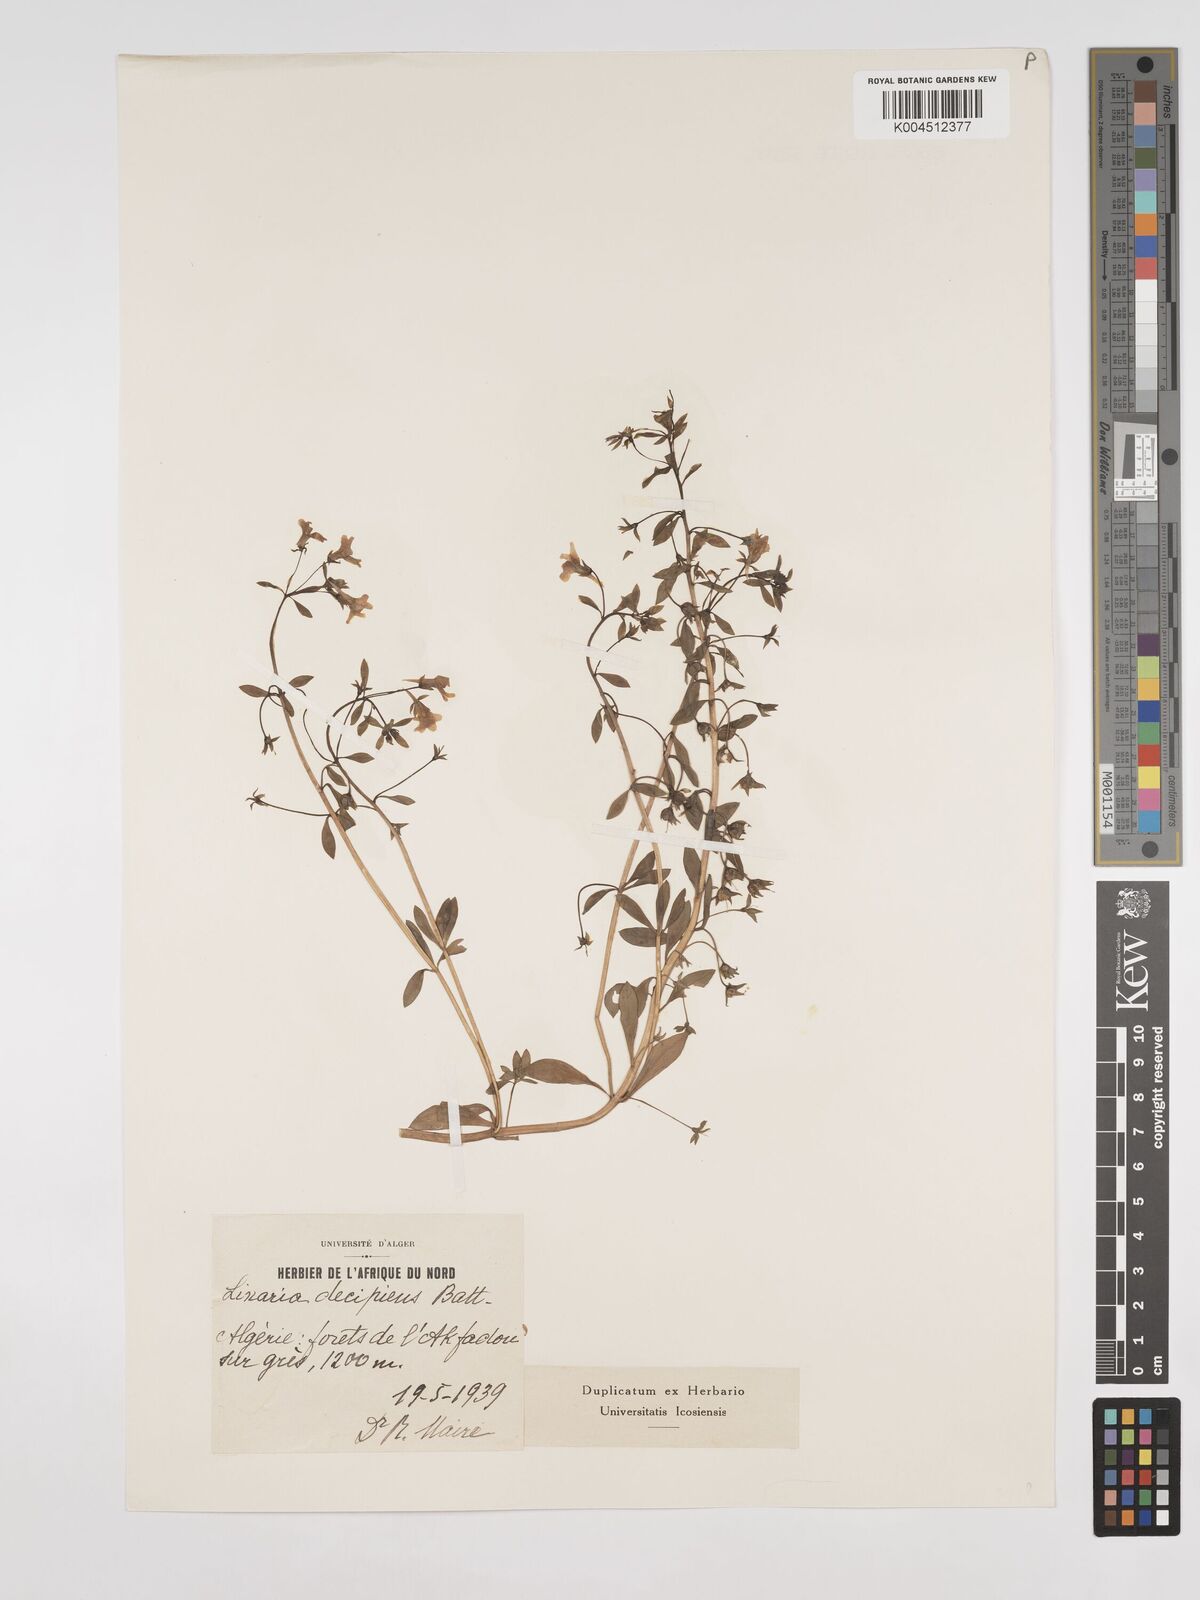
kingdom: Plantae
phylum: Tracheophyta
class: Magnoliopsida
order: Lamiales
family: Plantaginaceae
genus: Linaria
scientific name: Linaria decipiens
